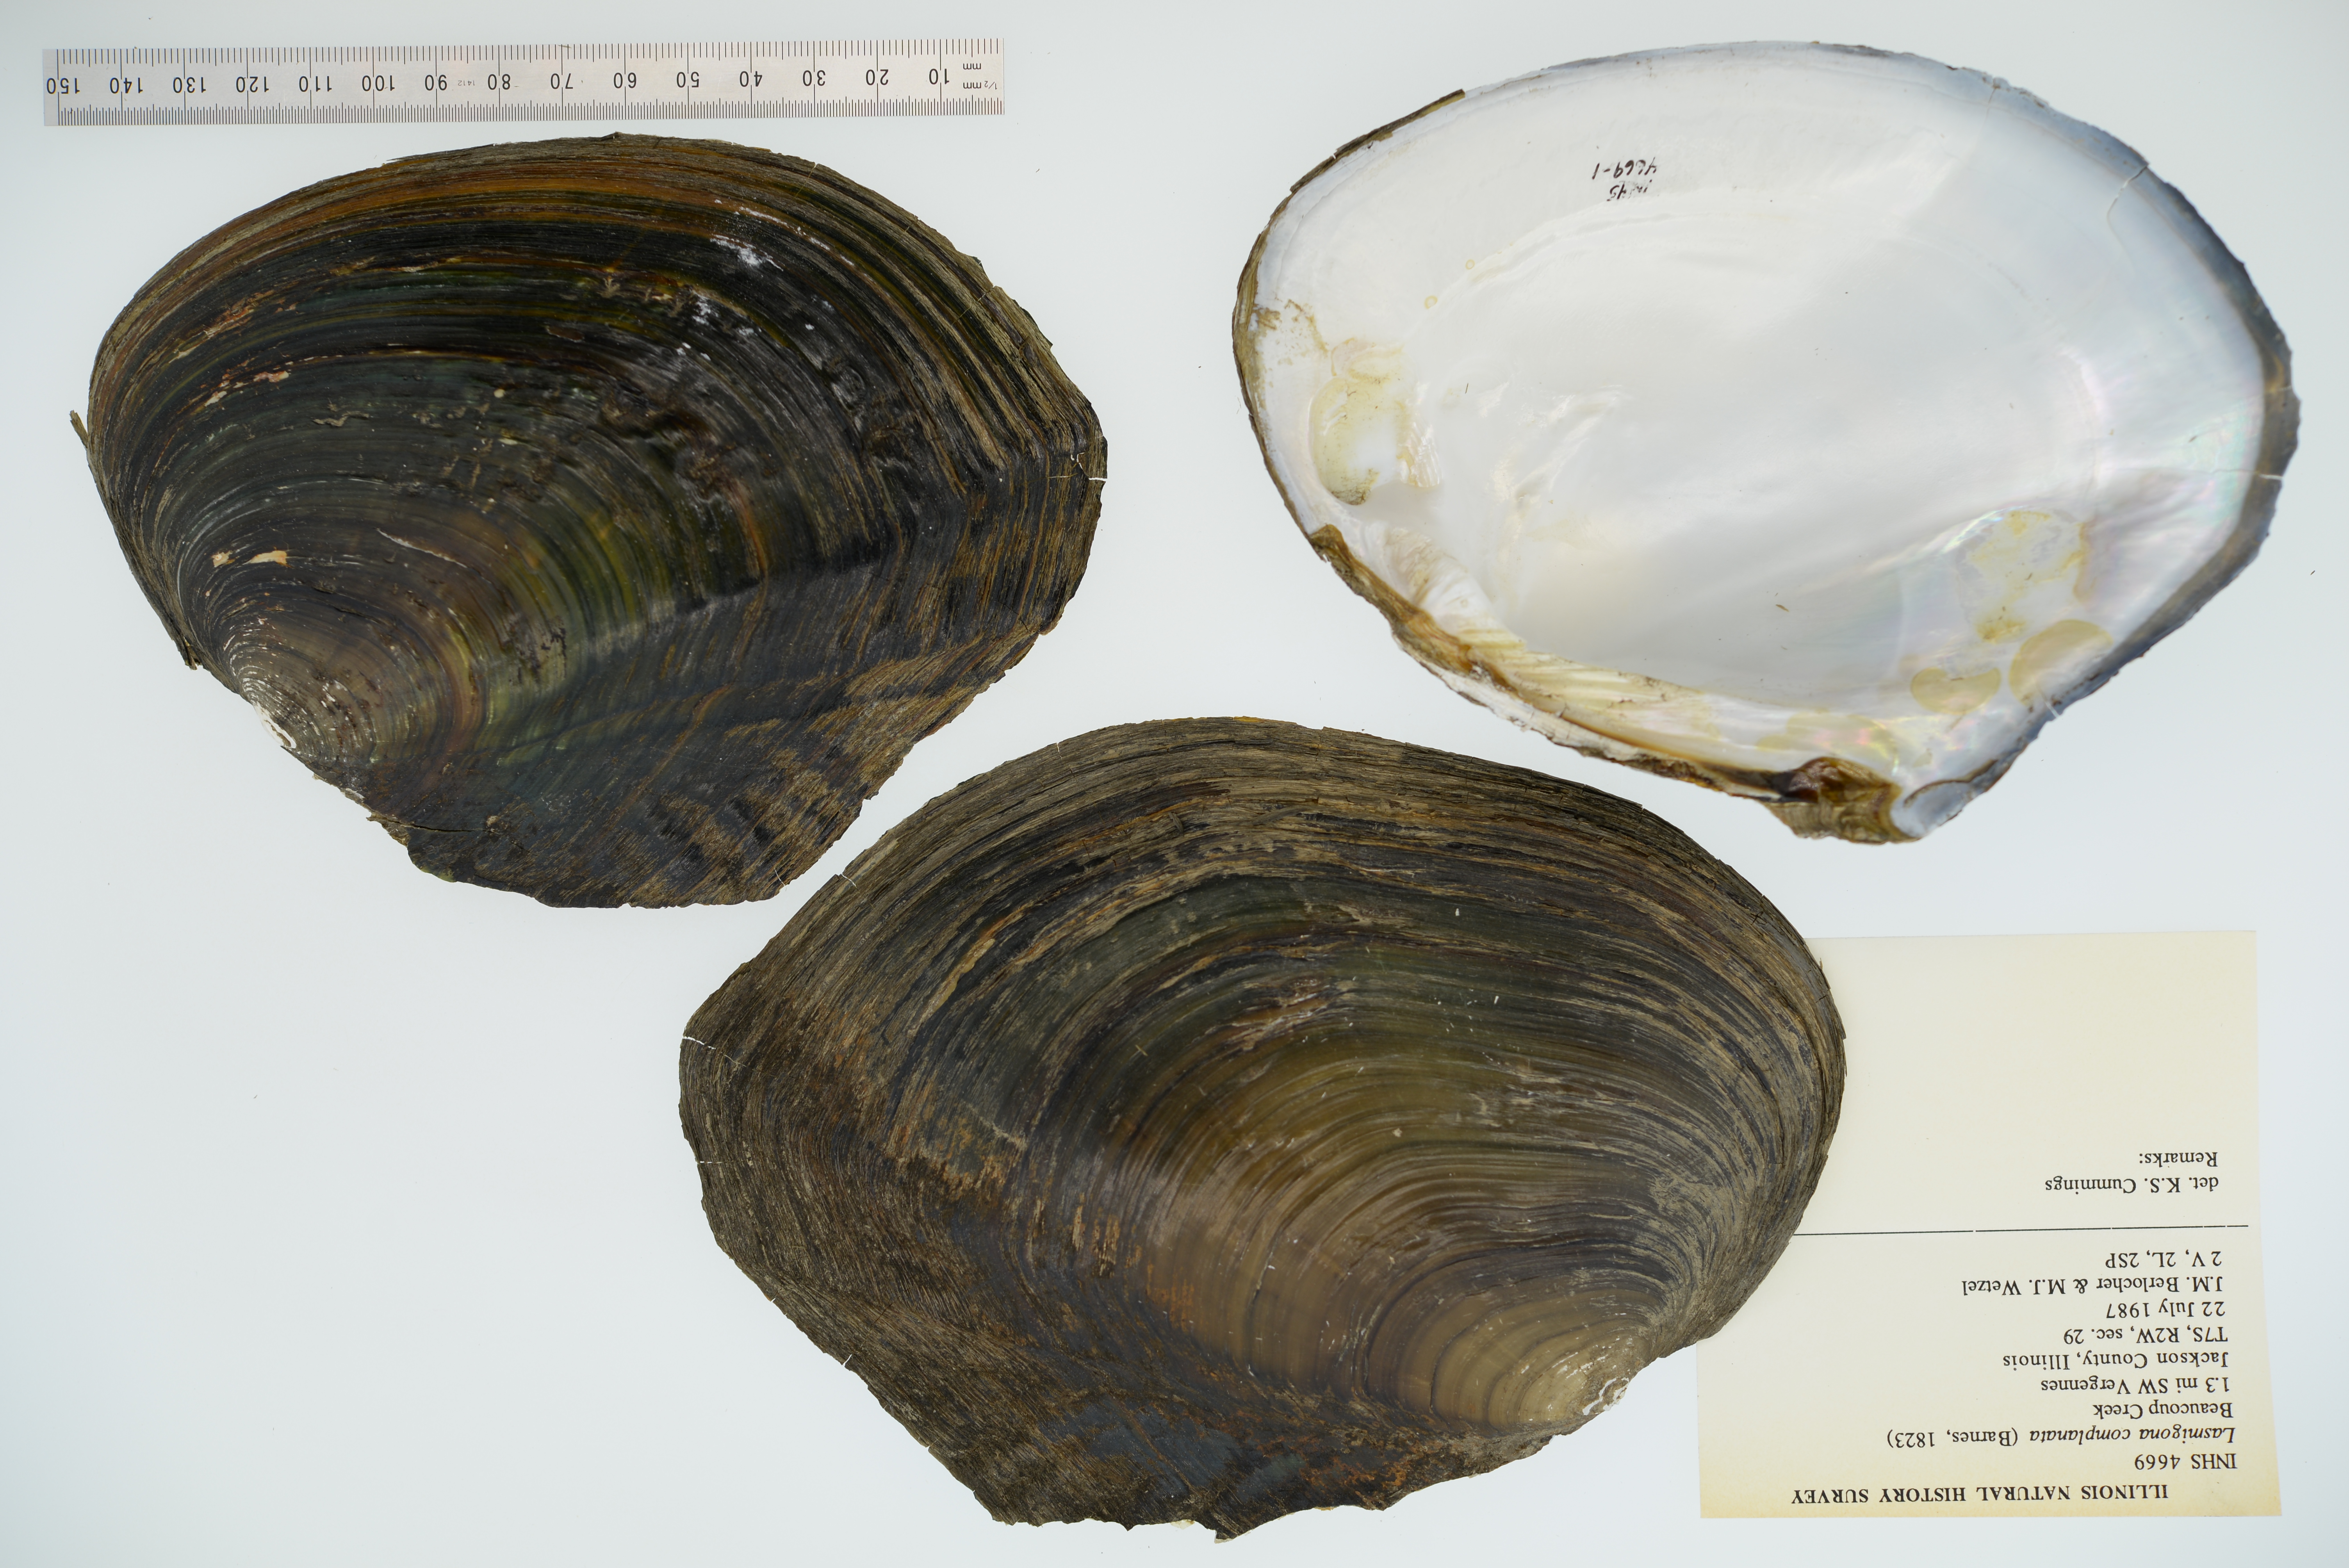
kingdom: Animalia
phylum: Mollusca
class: Bivalvia
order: Unionida
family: Unionidae
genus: Lasmigona
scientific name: Lasmigona complanata
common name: White heelsplitter
